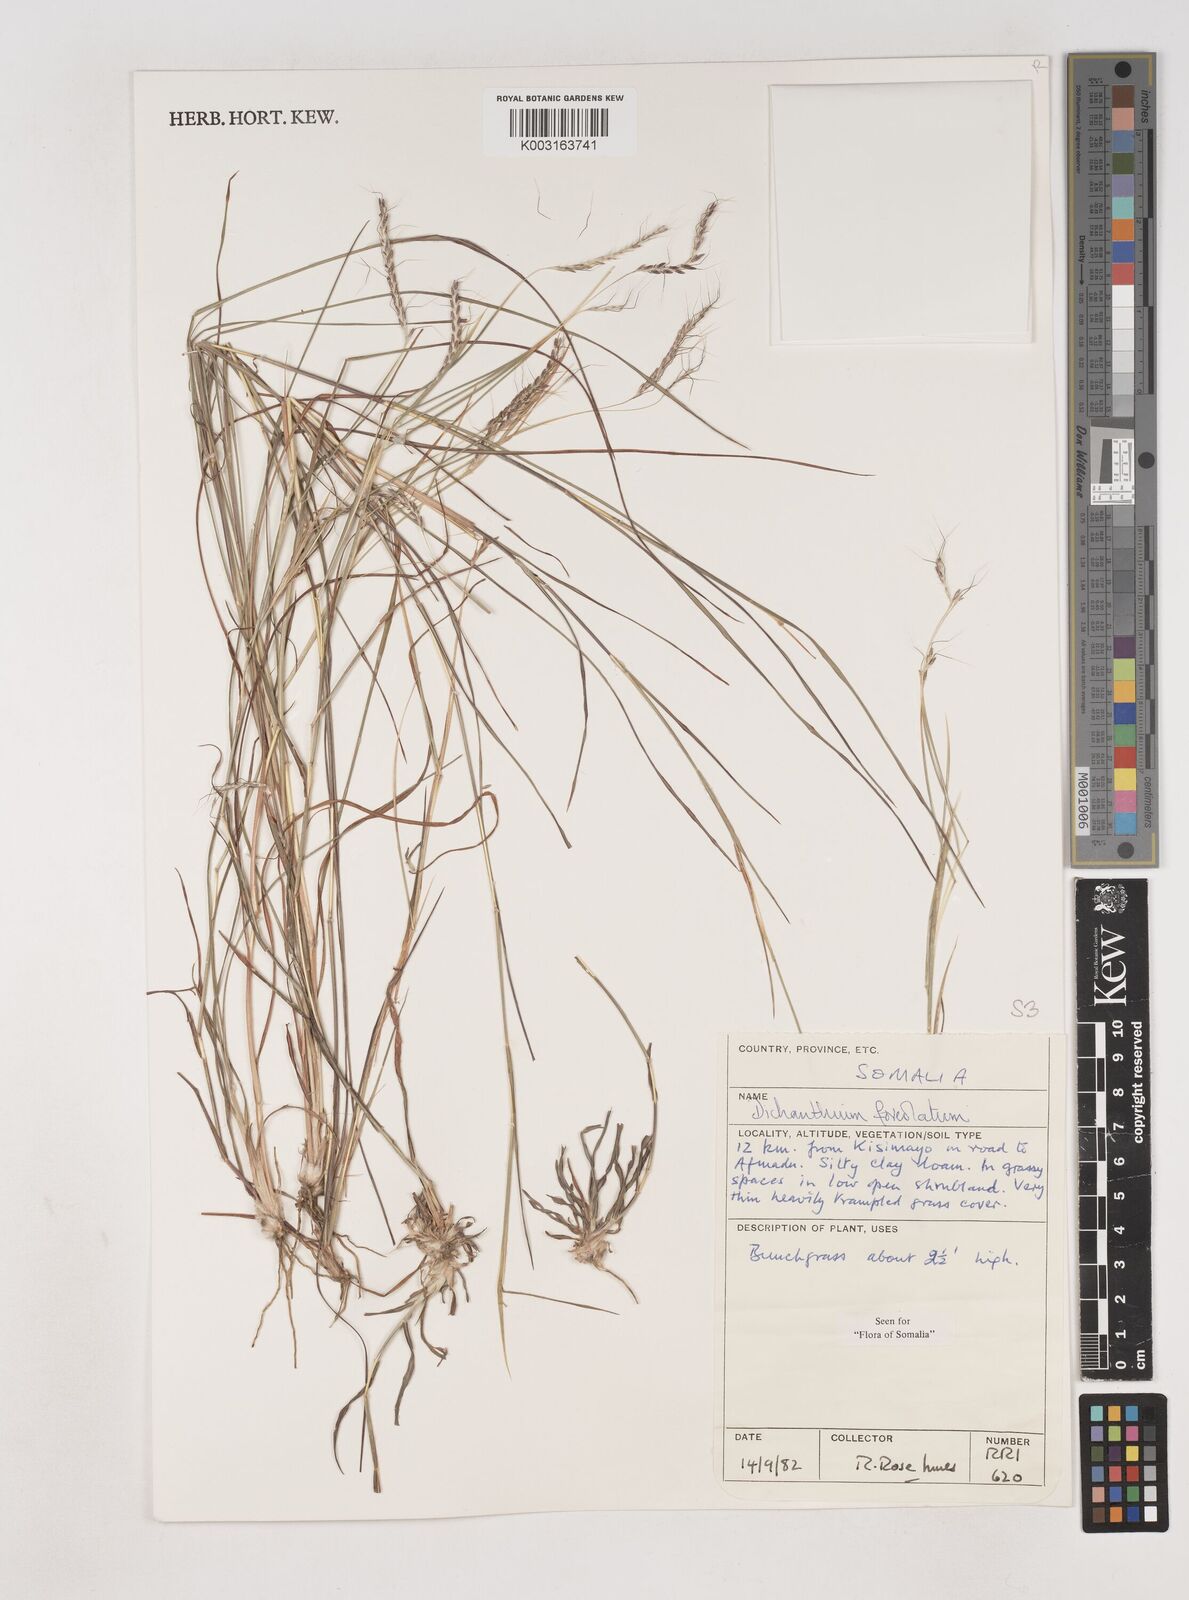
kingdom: Plantae
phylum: Tracheophyta
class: Liliopsida
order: Poales
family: Poaceae
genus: Dichanthium
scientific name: Dichanthium foveolatum
